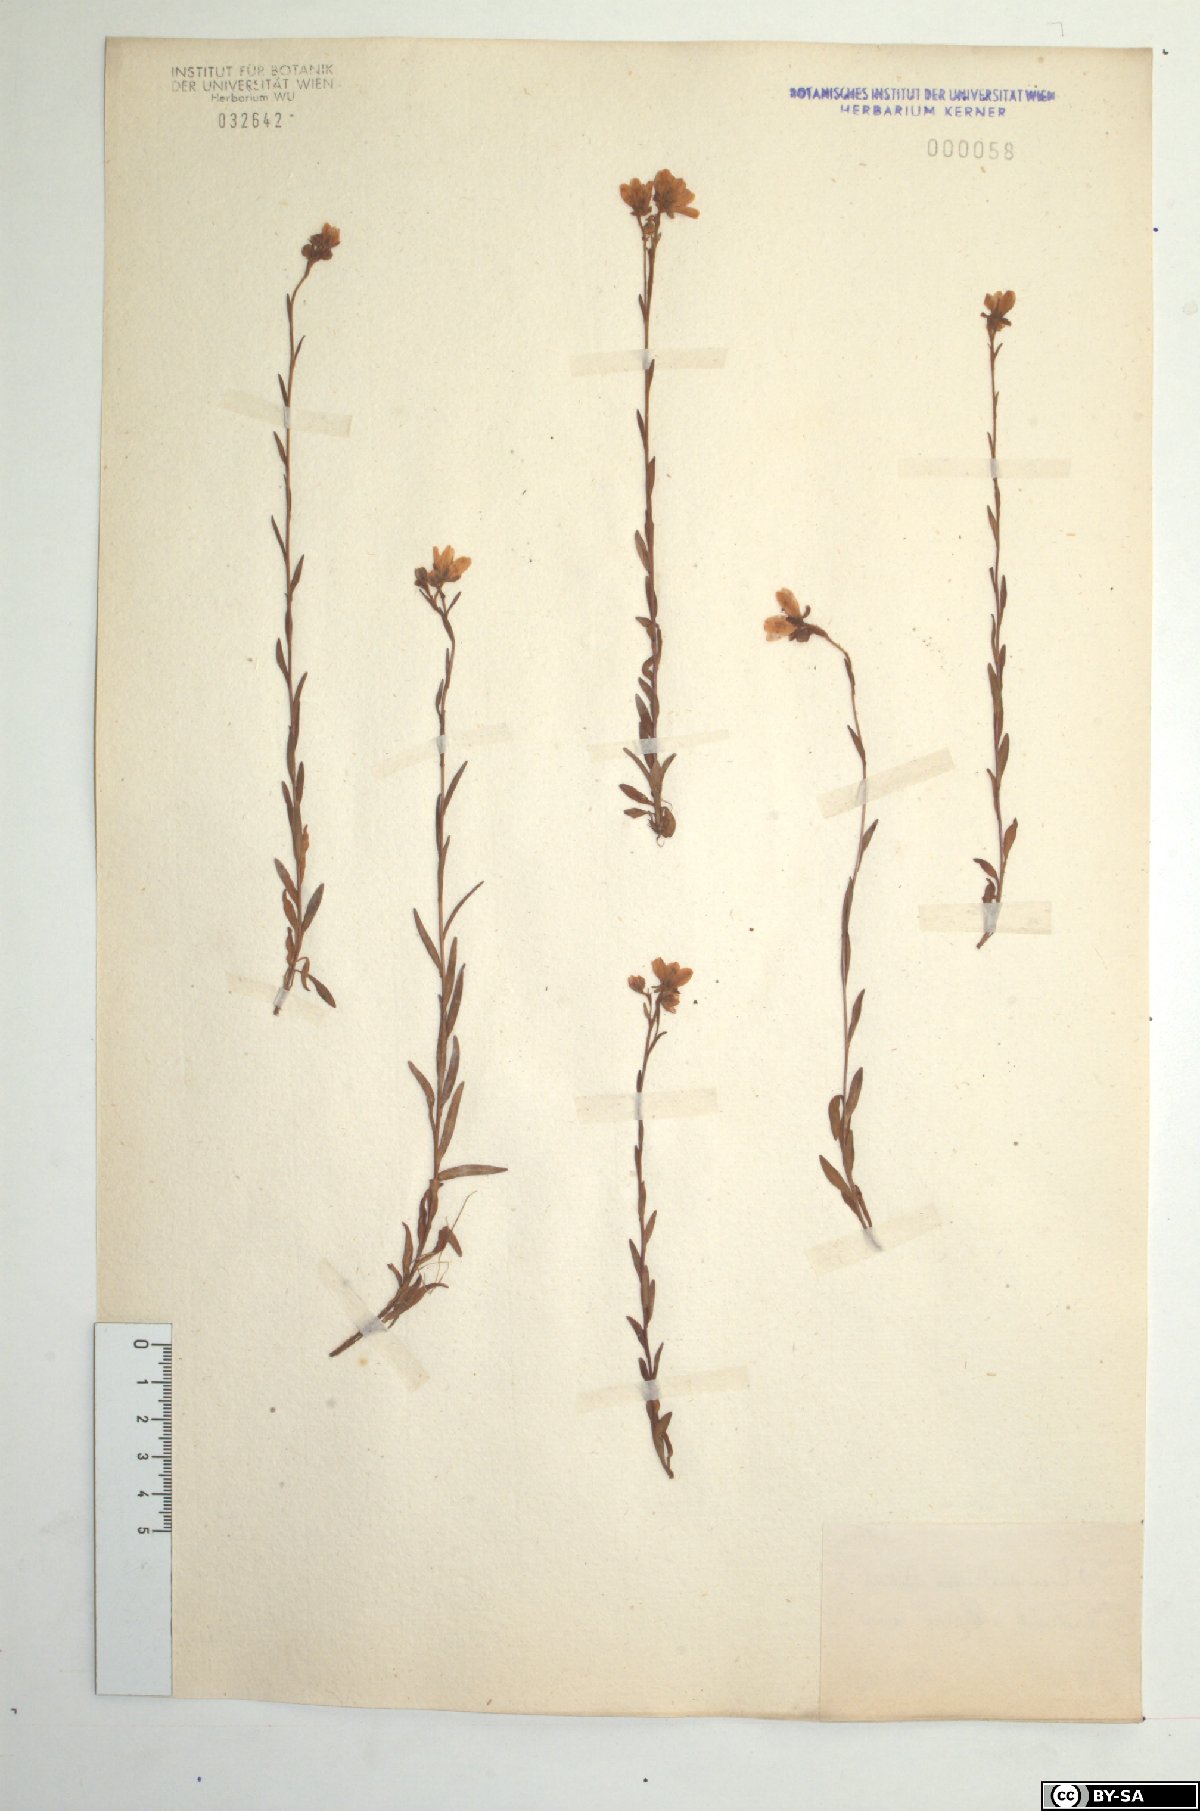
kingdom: Plantae
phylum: Tracheophyta
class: Magnoliopsida
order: Saxifragales
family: Saxifragaceae
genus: Saxifraga
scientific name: Saxifraga hirculus
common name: Yellow marsh saxifrage
